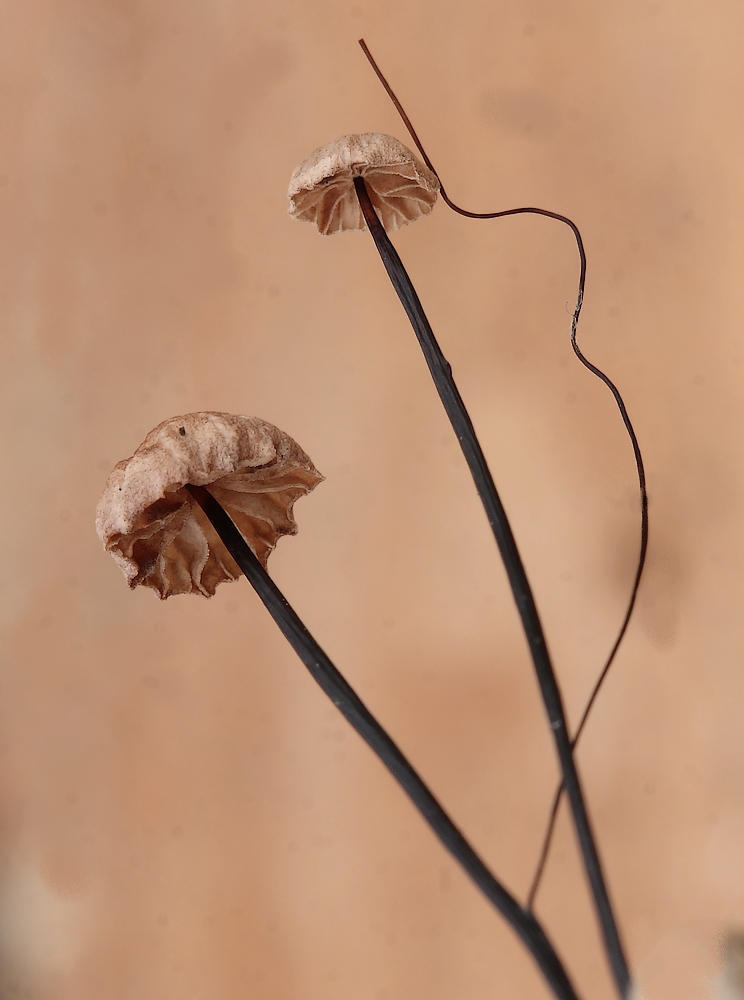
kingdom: Fungi
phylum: Basidiomycota
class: Agaricomycetes
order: Agaricales
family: Omphalotaceae
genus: Gymnopus
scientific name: Gymnopus androsaceus
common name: trådstokket fladhat
